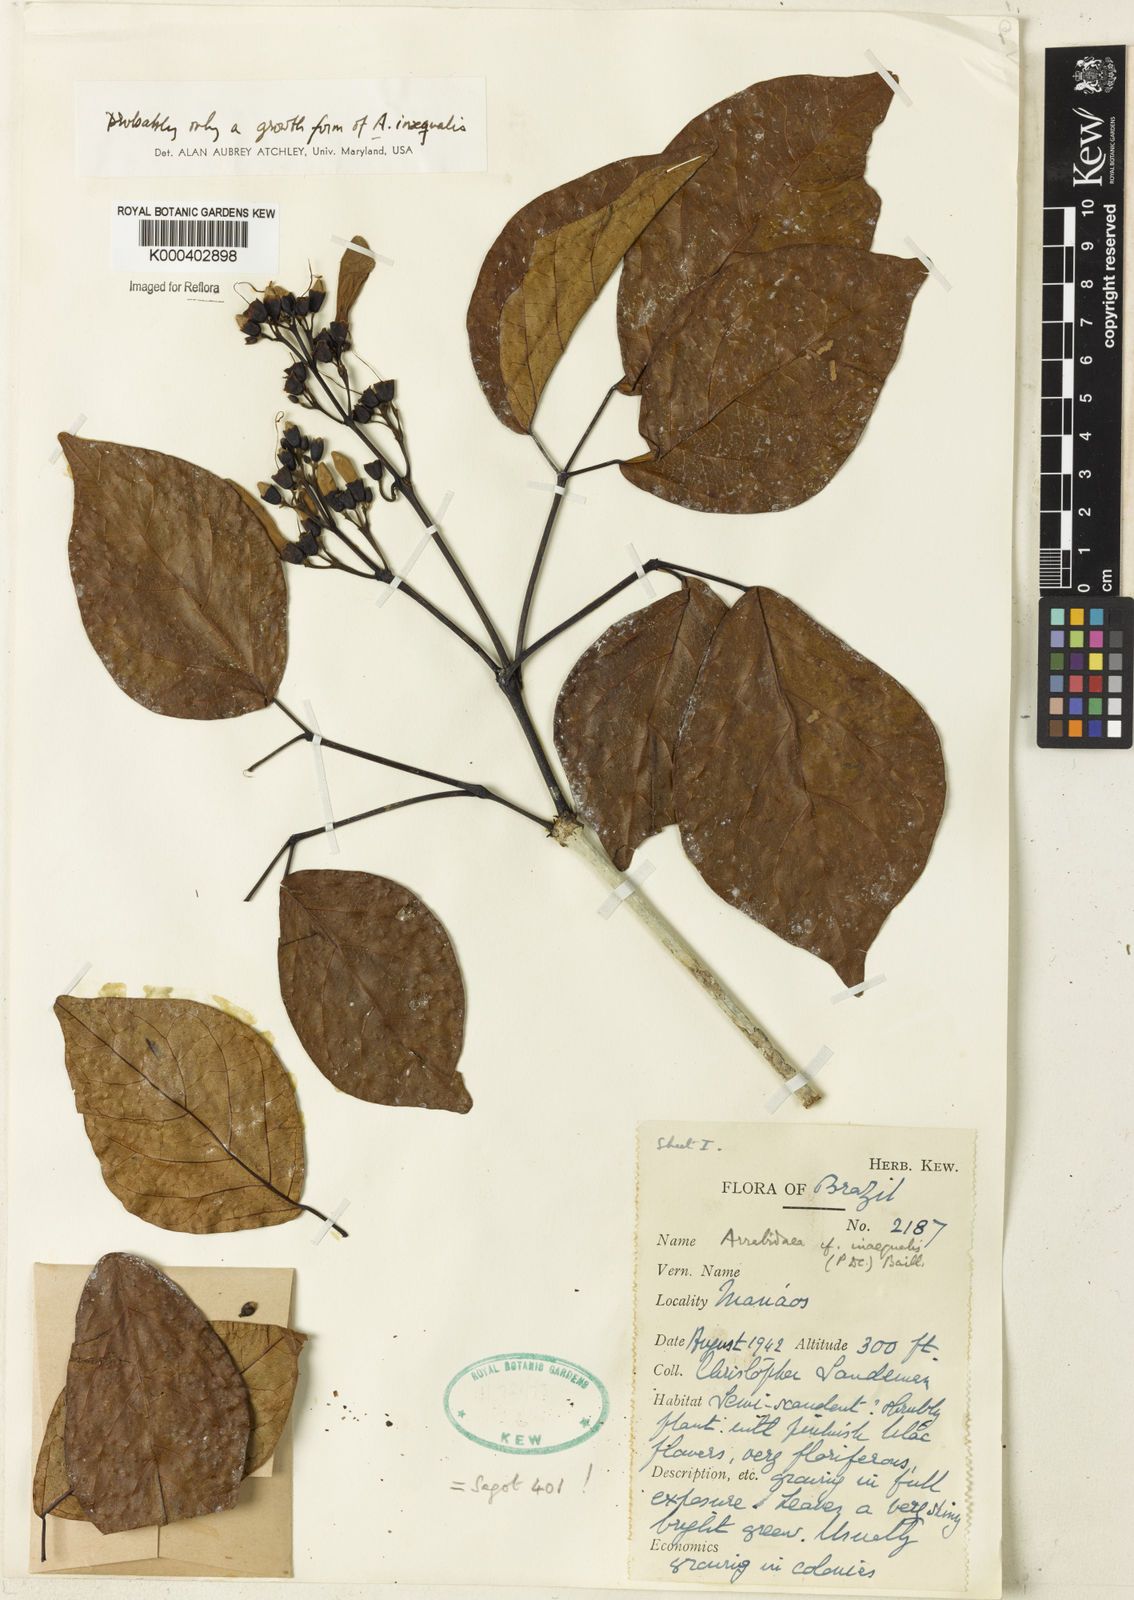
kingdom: Plantae
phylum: Tracheophyta
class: Magnoliopsida
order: Lamiales
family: Bignoniaceae
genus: Cuspidaria
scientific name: Cuspidaria inaequalis
